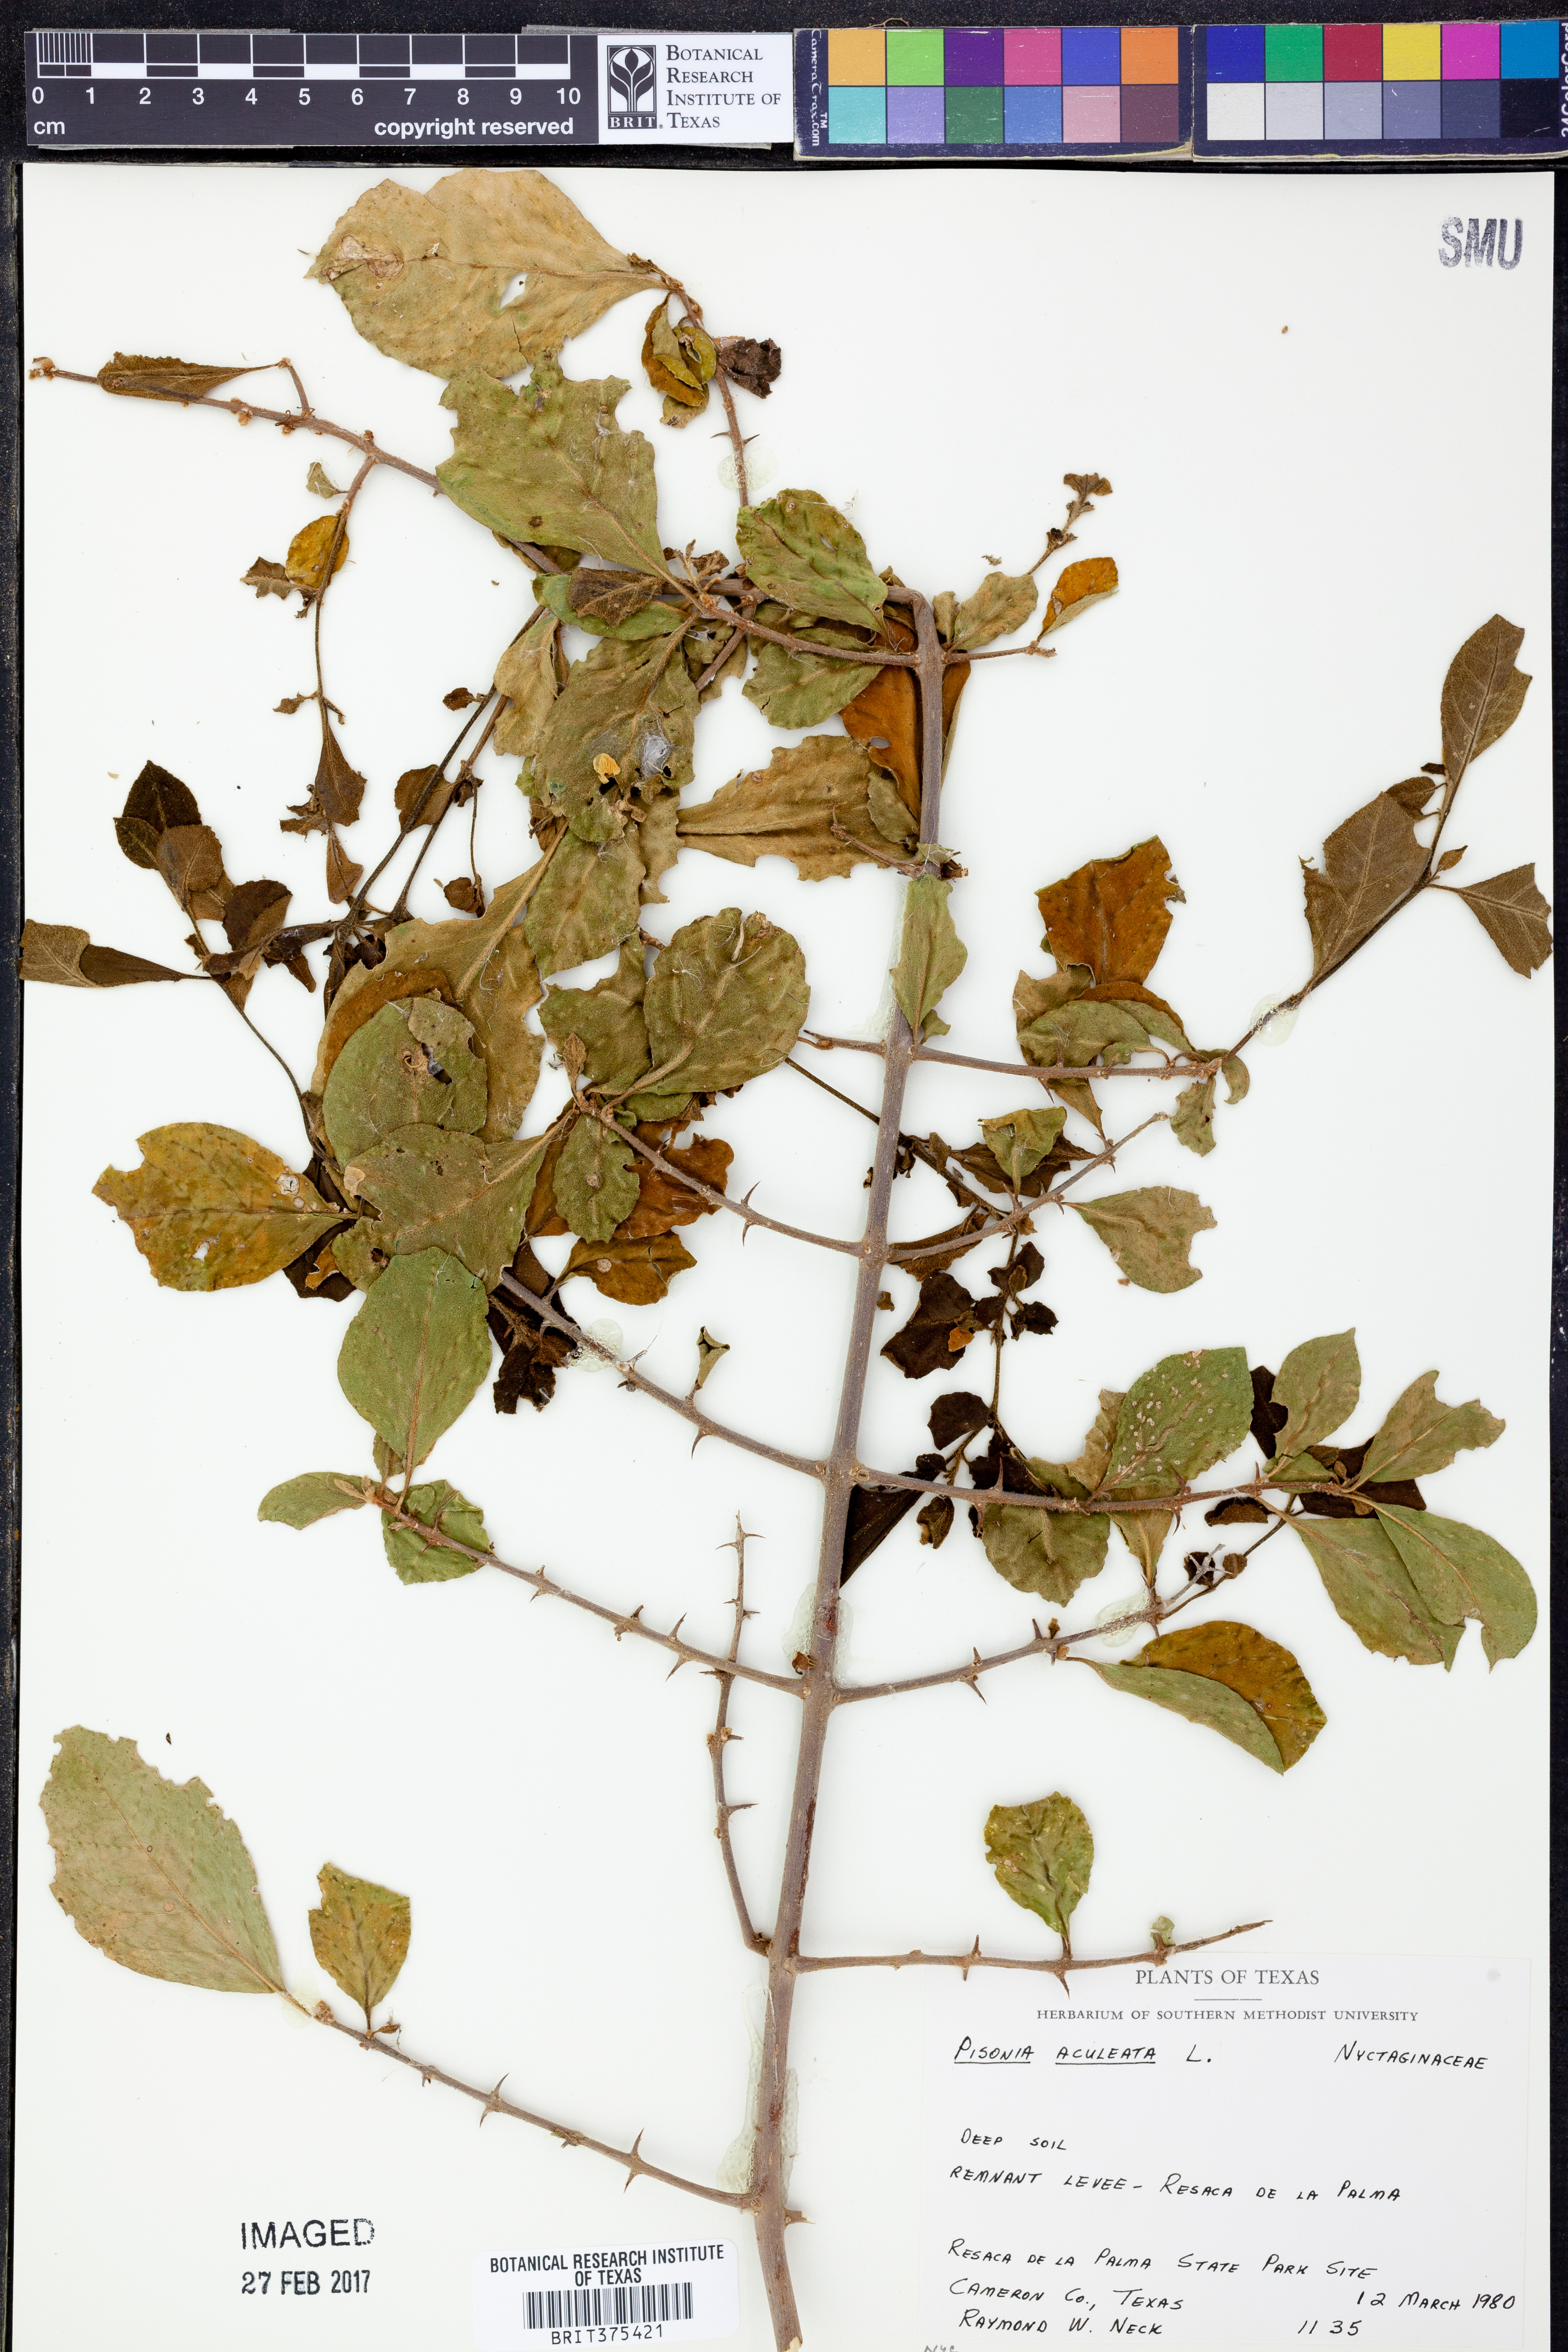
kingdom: Plantae
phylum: Tracheophyta
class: Magnoliopsida
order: Caryophyllales
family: Nyctaginaceae
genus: Pisonia
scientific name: Pisonia aculeata
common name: Cockspur vine
